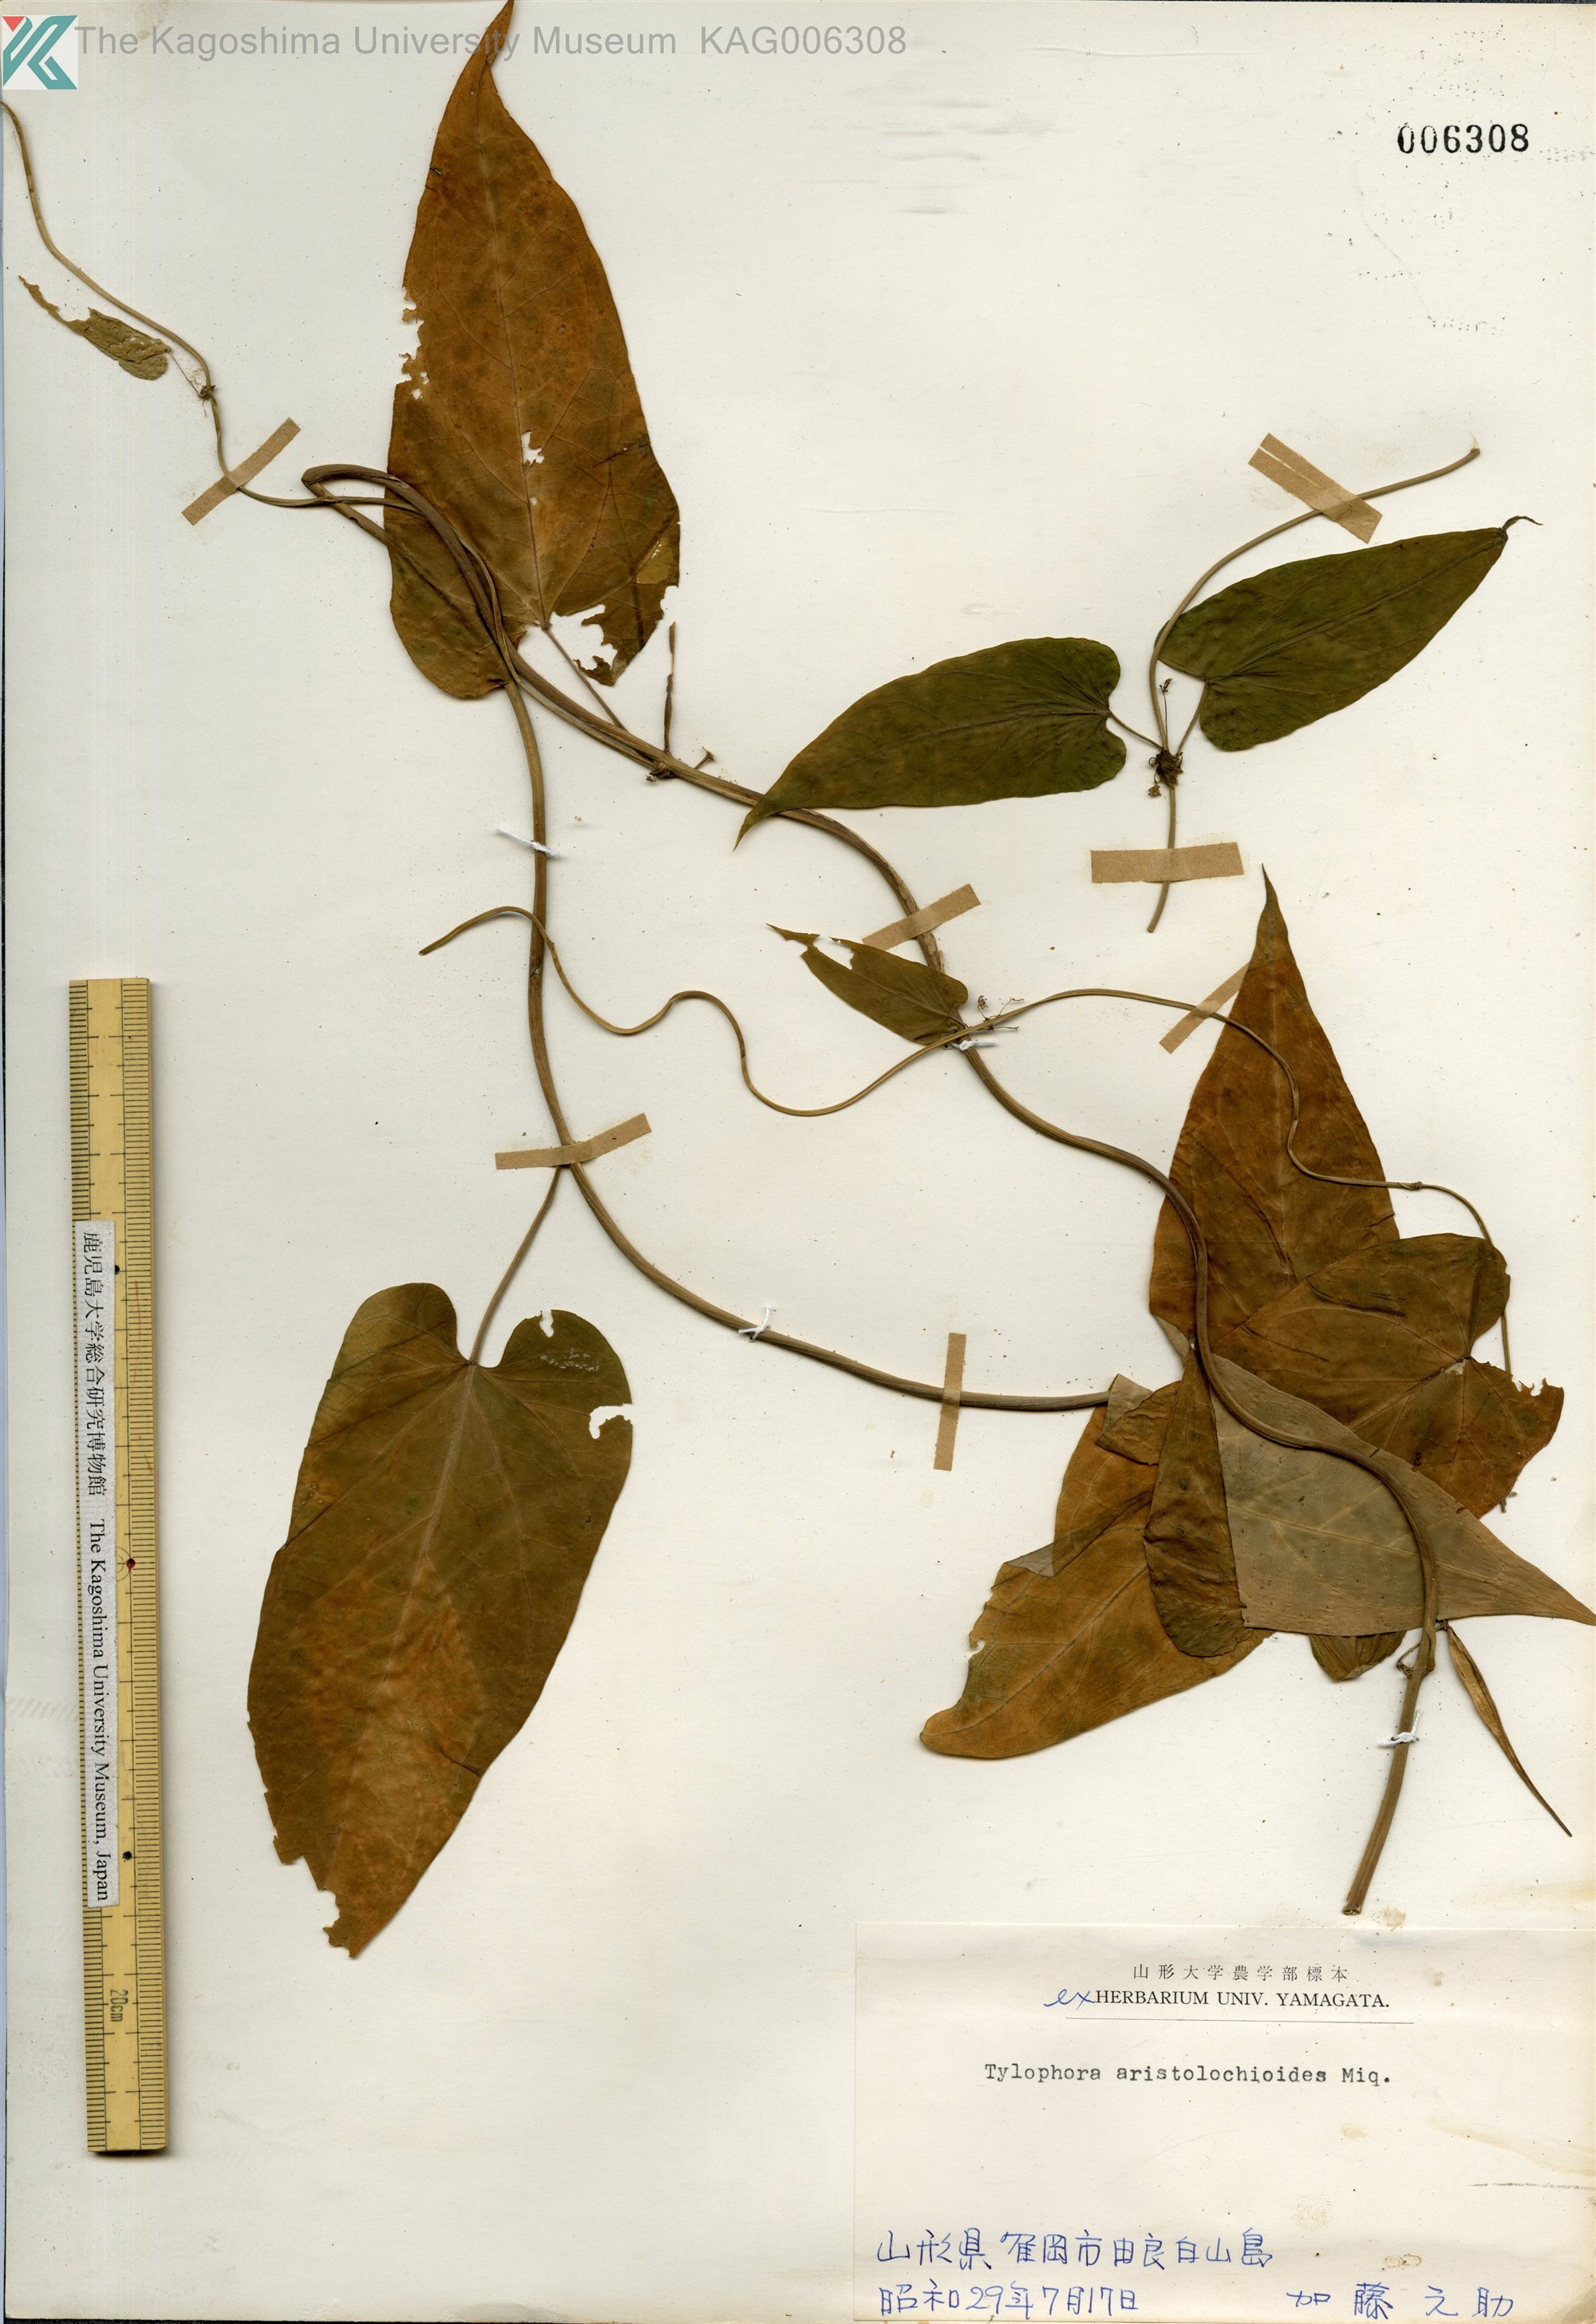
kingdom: Plantae
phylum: Tracheophyta
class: Magnoliopsida
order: Gentianales
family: Apocynaceae
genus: Vincetoxicum
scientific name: Vincetoxicum aristolochioides
